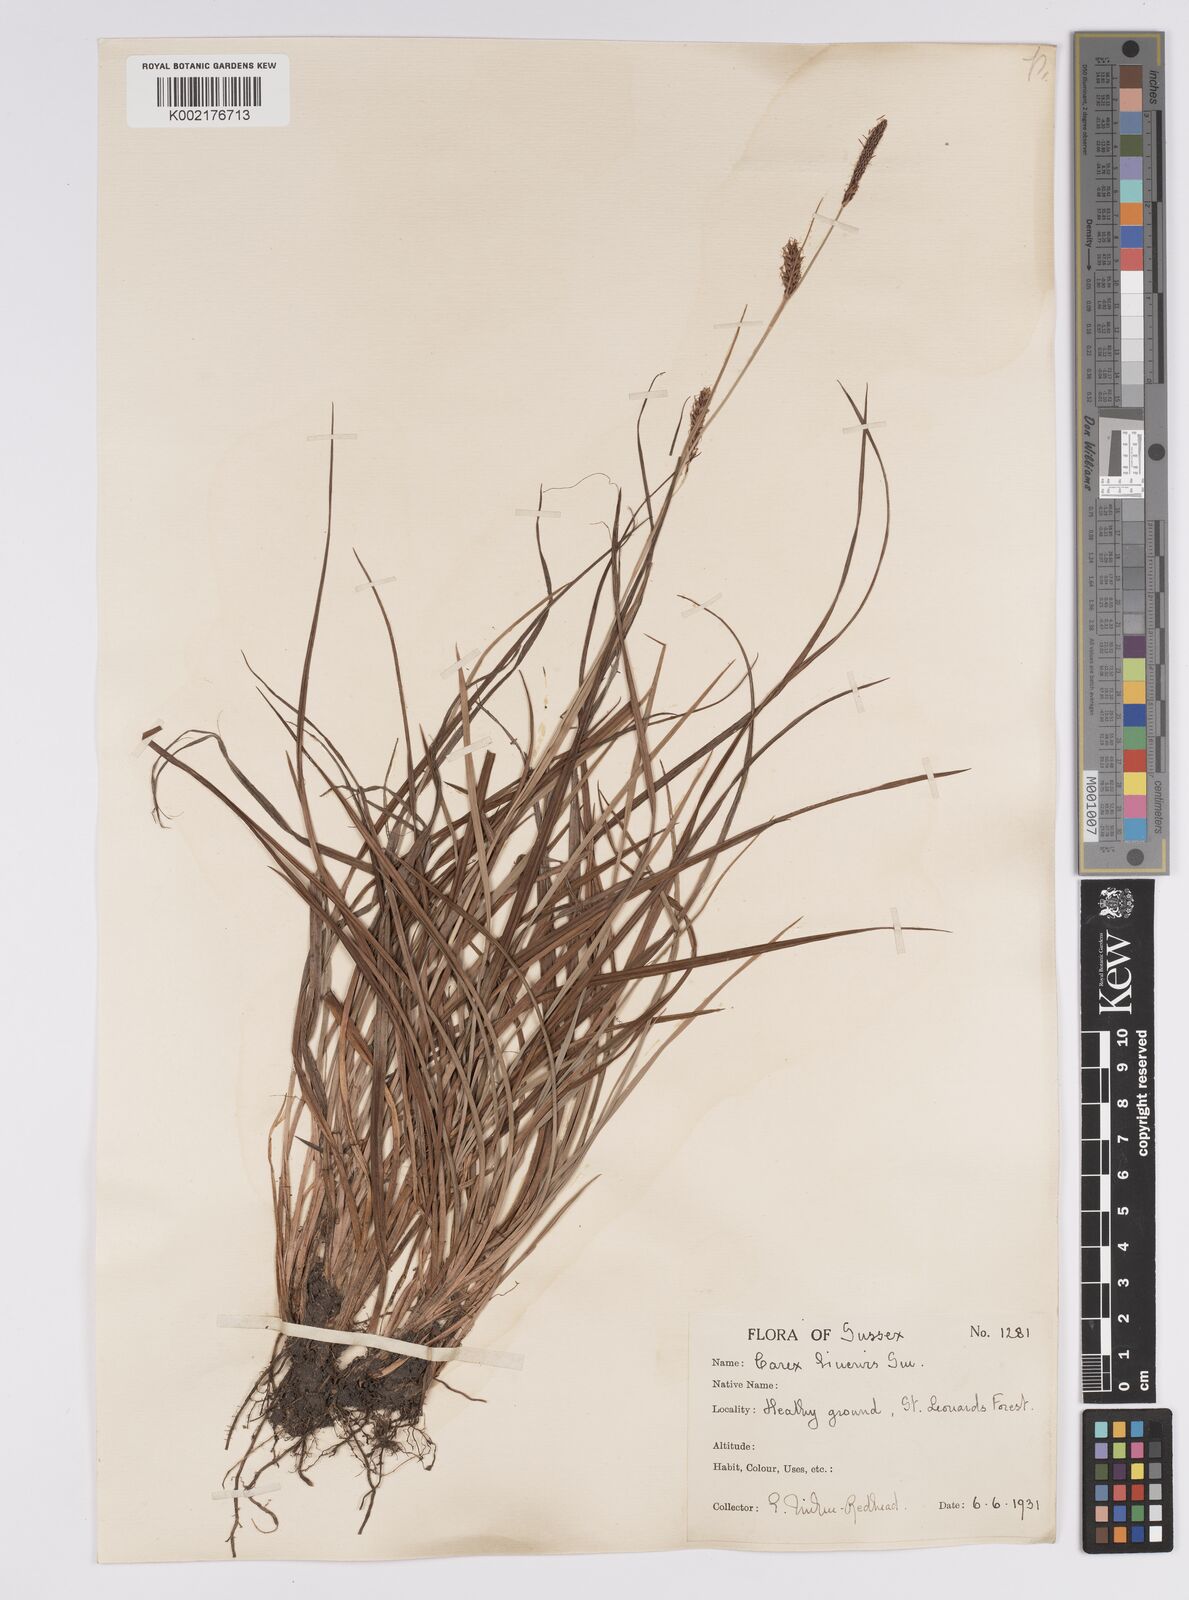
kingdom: Plantae
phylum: Tracheophyta
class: Liliopsida
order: Poales
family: Cyperaceae
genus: Carex
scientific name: Carex binervis
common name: Green-ribbed sedge
